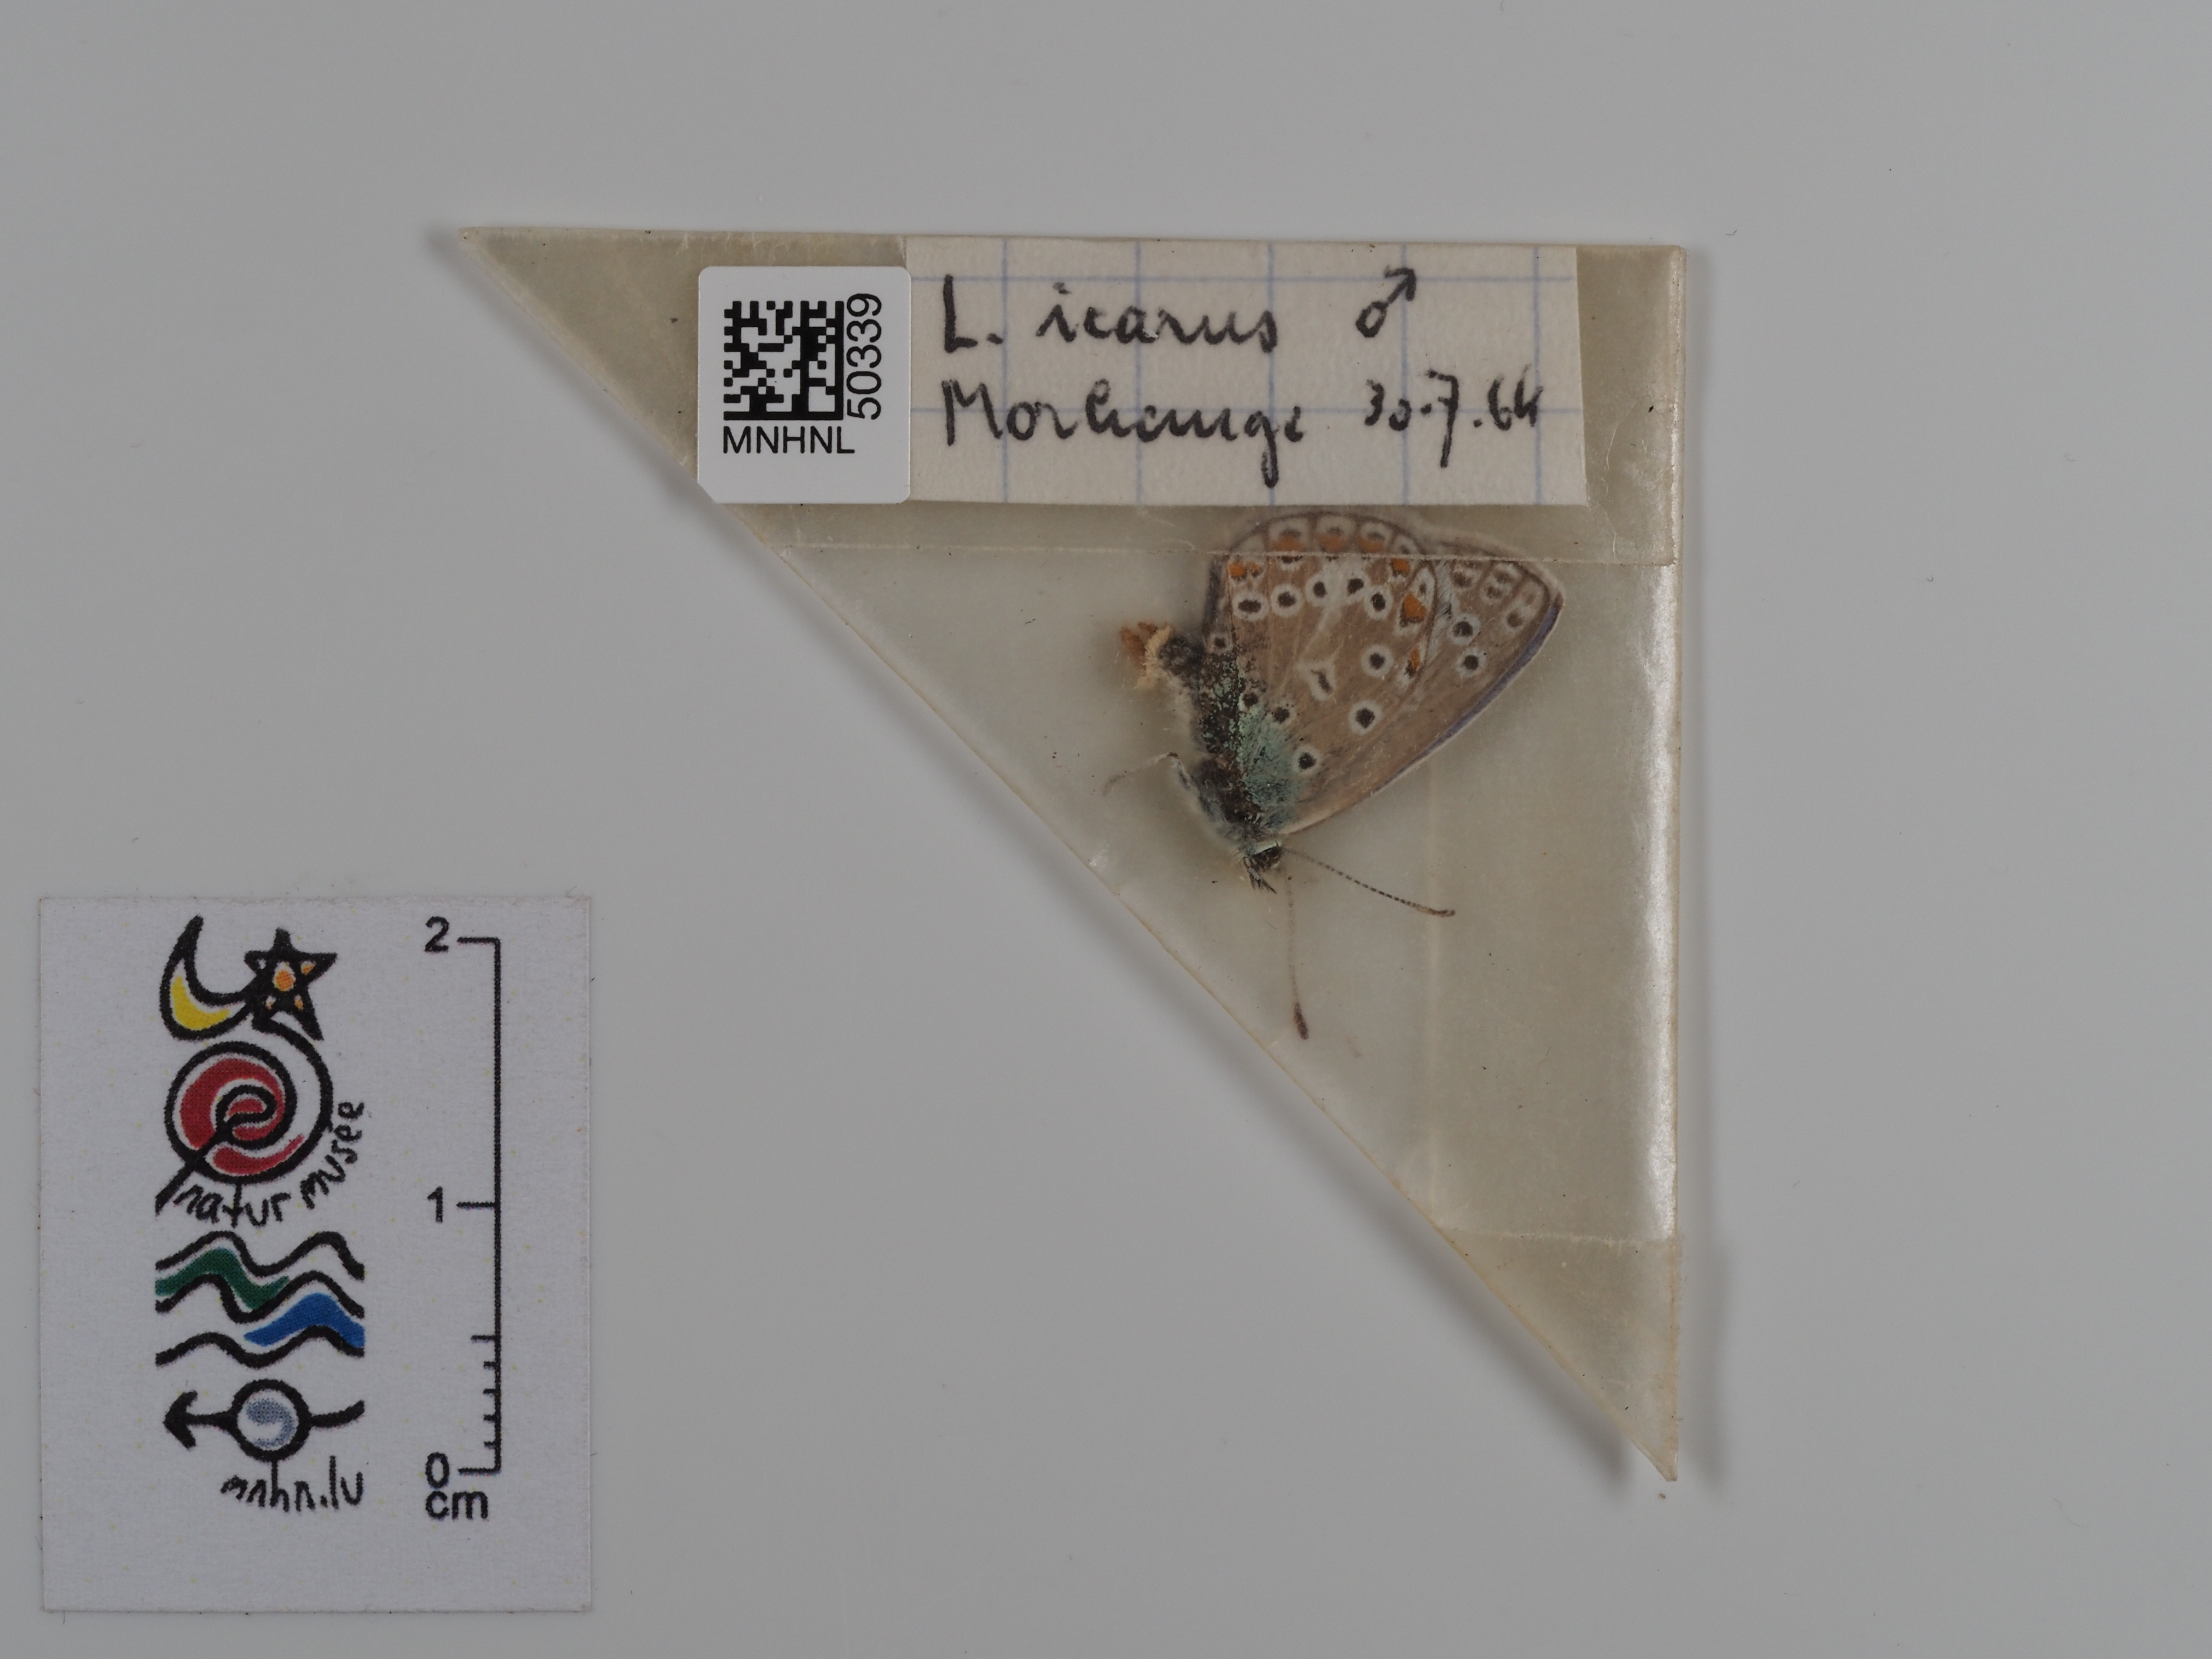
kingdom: Animalia
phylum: Arthropoda
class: Insecta
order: Lepidoptera
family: Lycaenidae
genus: Polyommatus
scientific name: Polyommatus icarus
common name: Common blue
